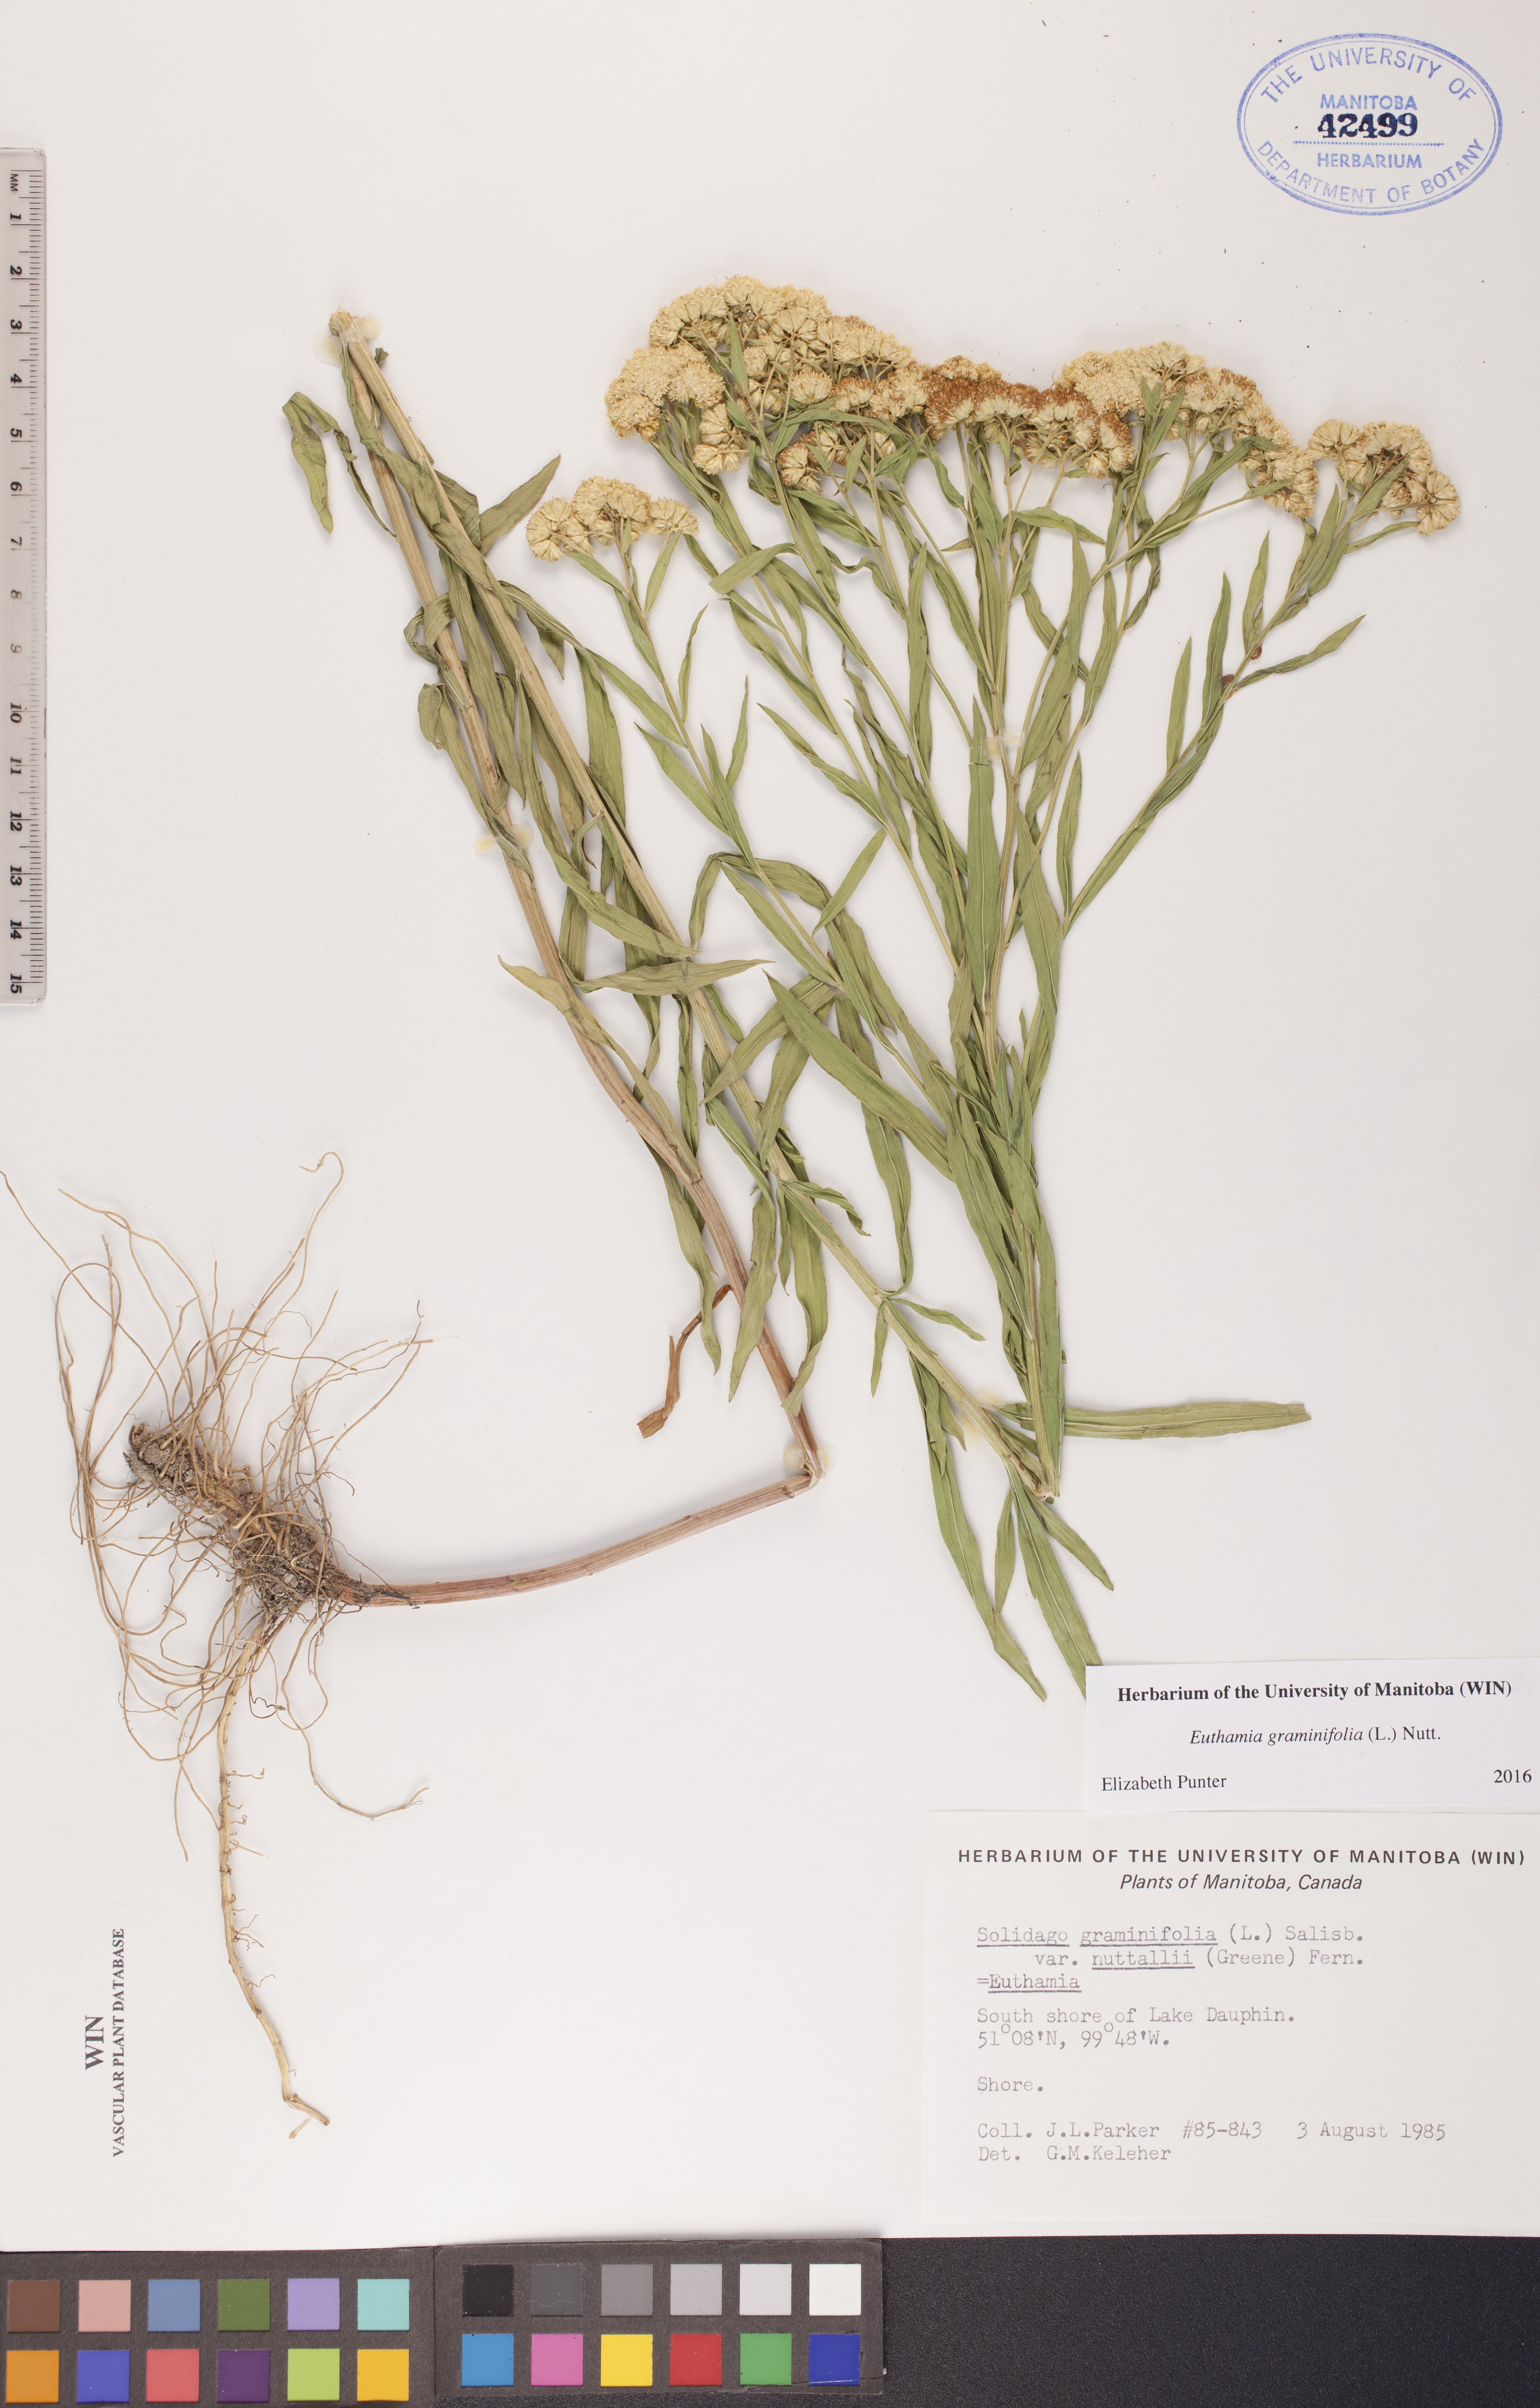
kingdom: Plantae
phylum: Tracheophyta
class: Magnoliopsida
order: Asterales
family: Asteraceae
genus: Euthamia
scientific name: Euthamia graminifolia
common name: Common goldentop
